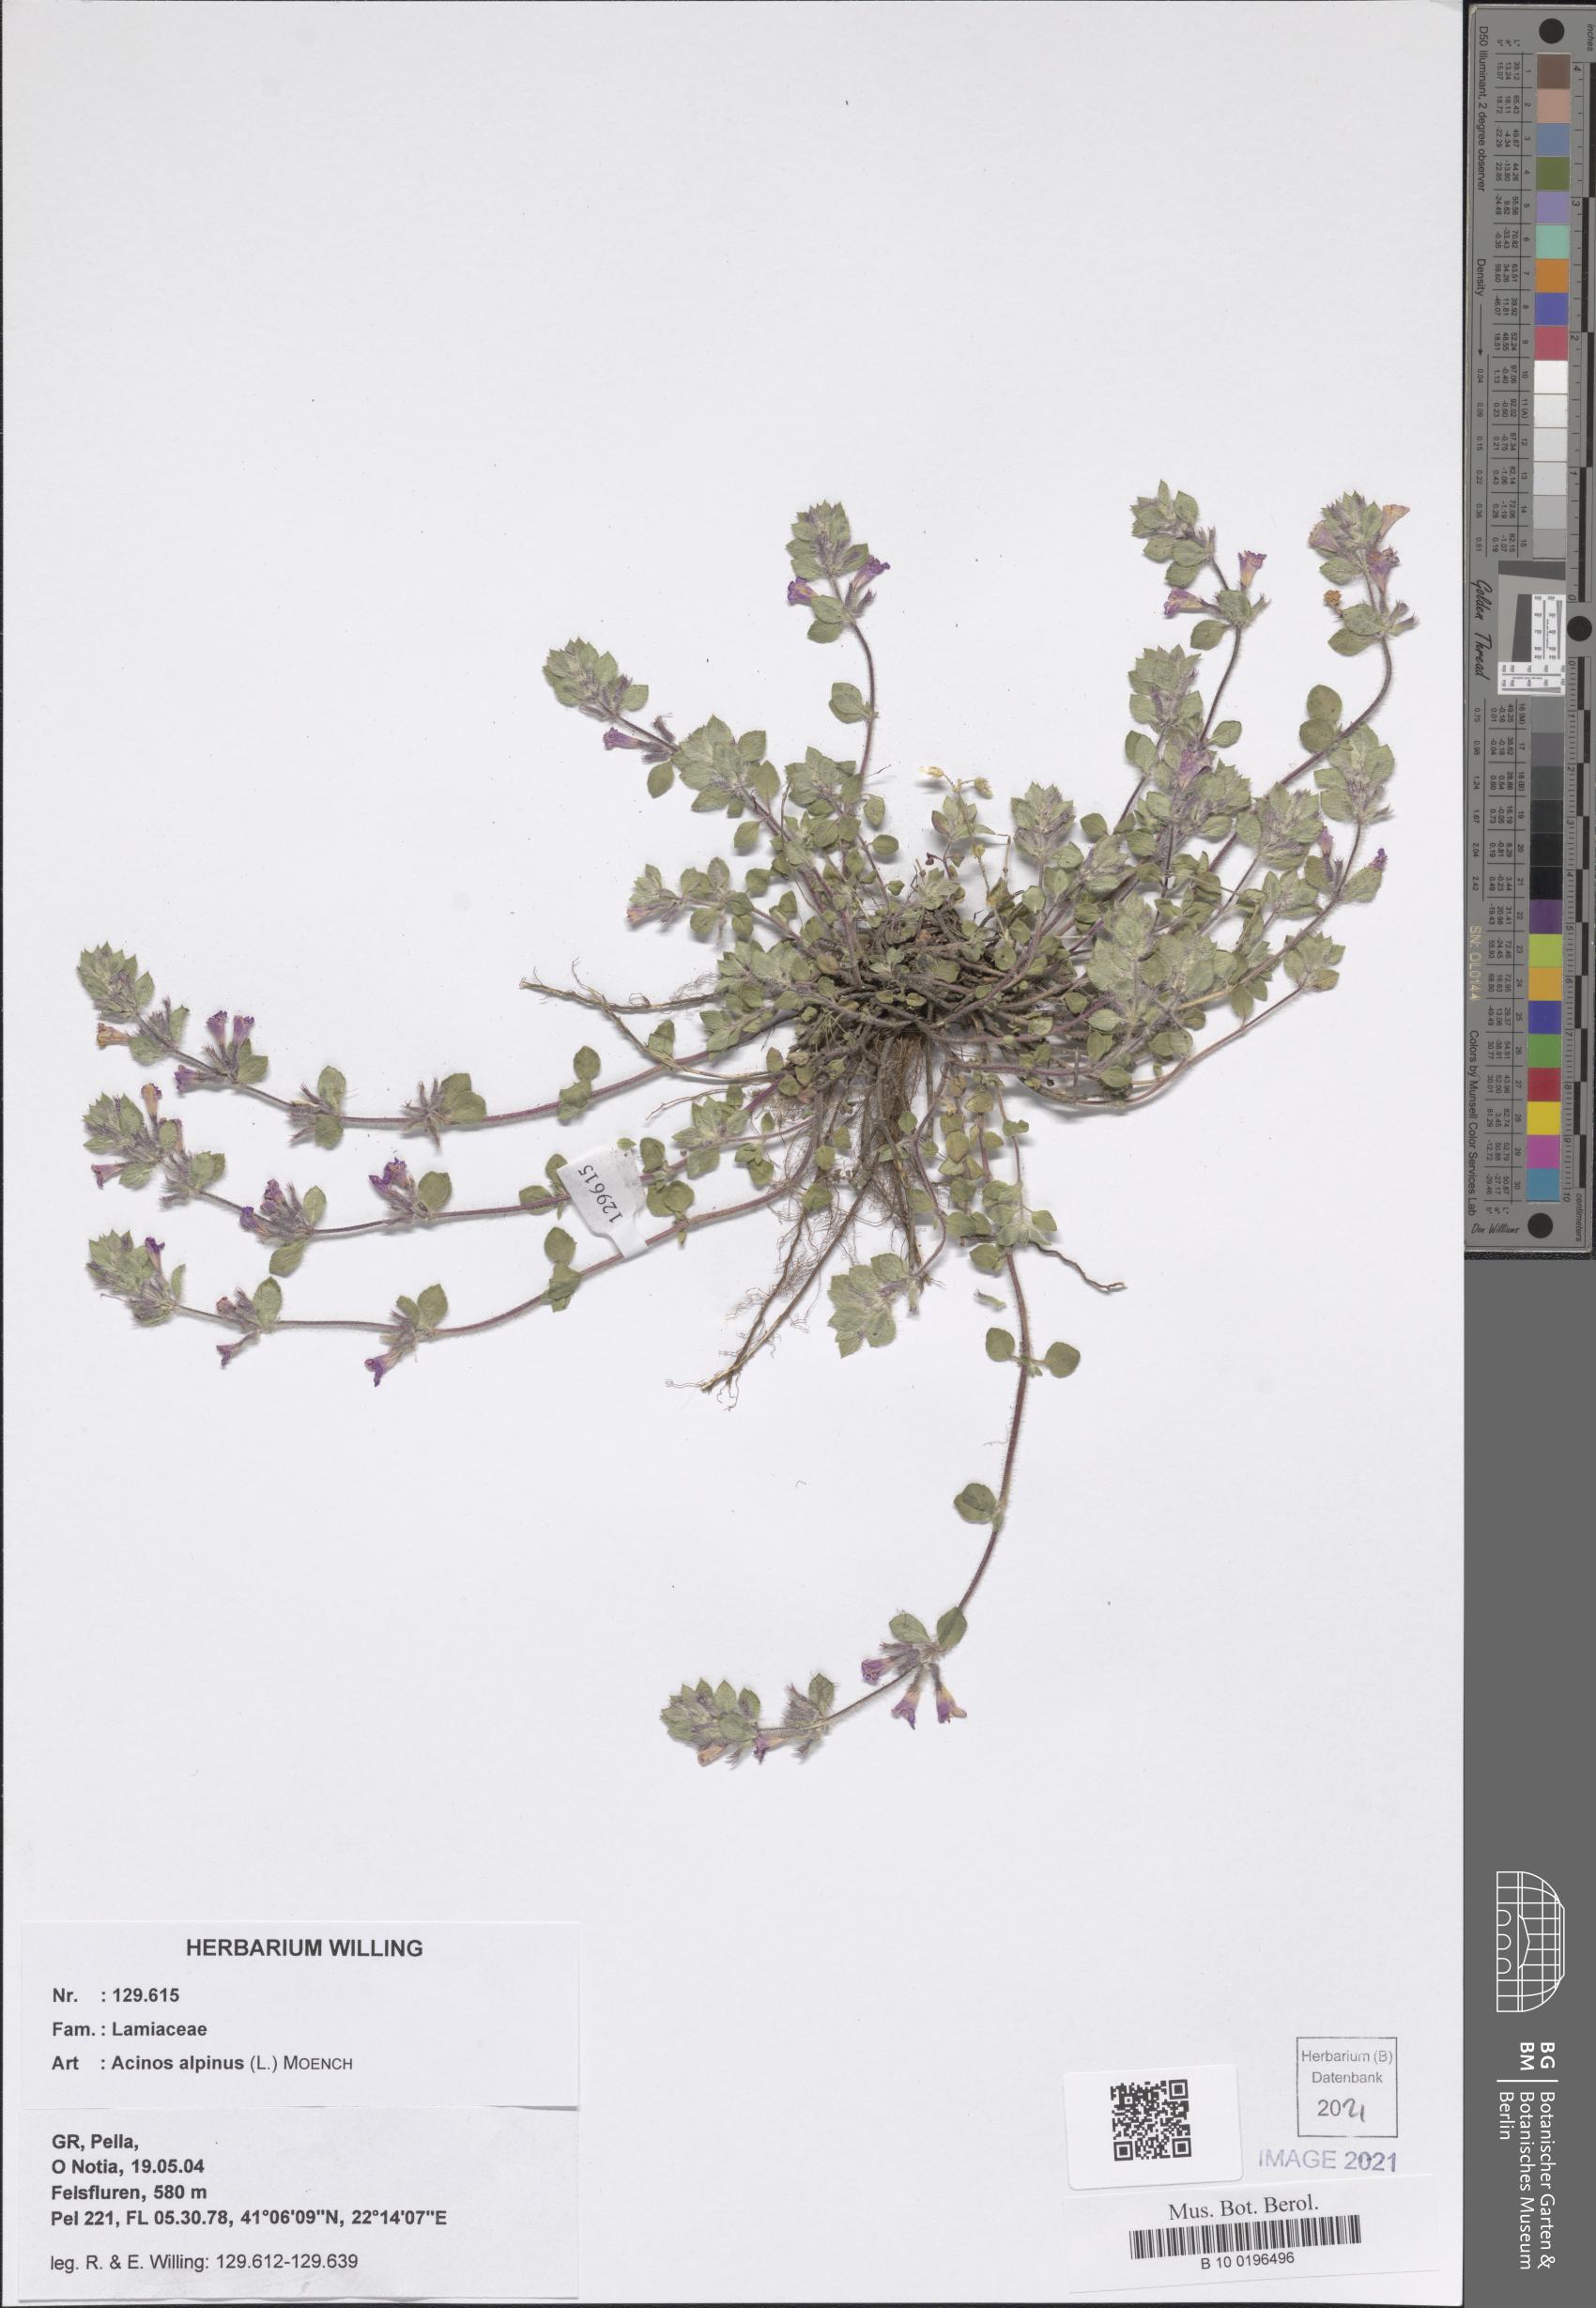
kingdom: Plantae
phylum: Tracheophyta
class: Magnoliopsida
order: Lamiales
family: Lamiaceae
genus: Clinopodium
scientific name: Clinopodium alpinum
